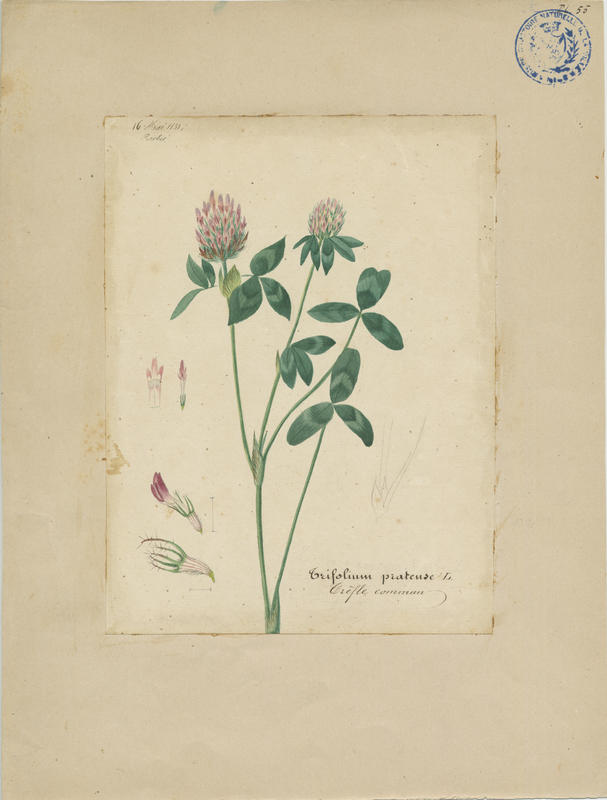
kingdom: Plantae
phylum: Tracheophyta
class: Magnoliopsida
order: Fabales
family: Fabaceae
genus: Trifolium
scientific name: Trifolium pratense
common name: Red clover
